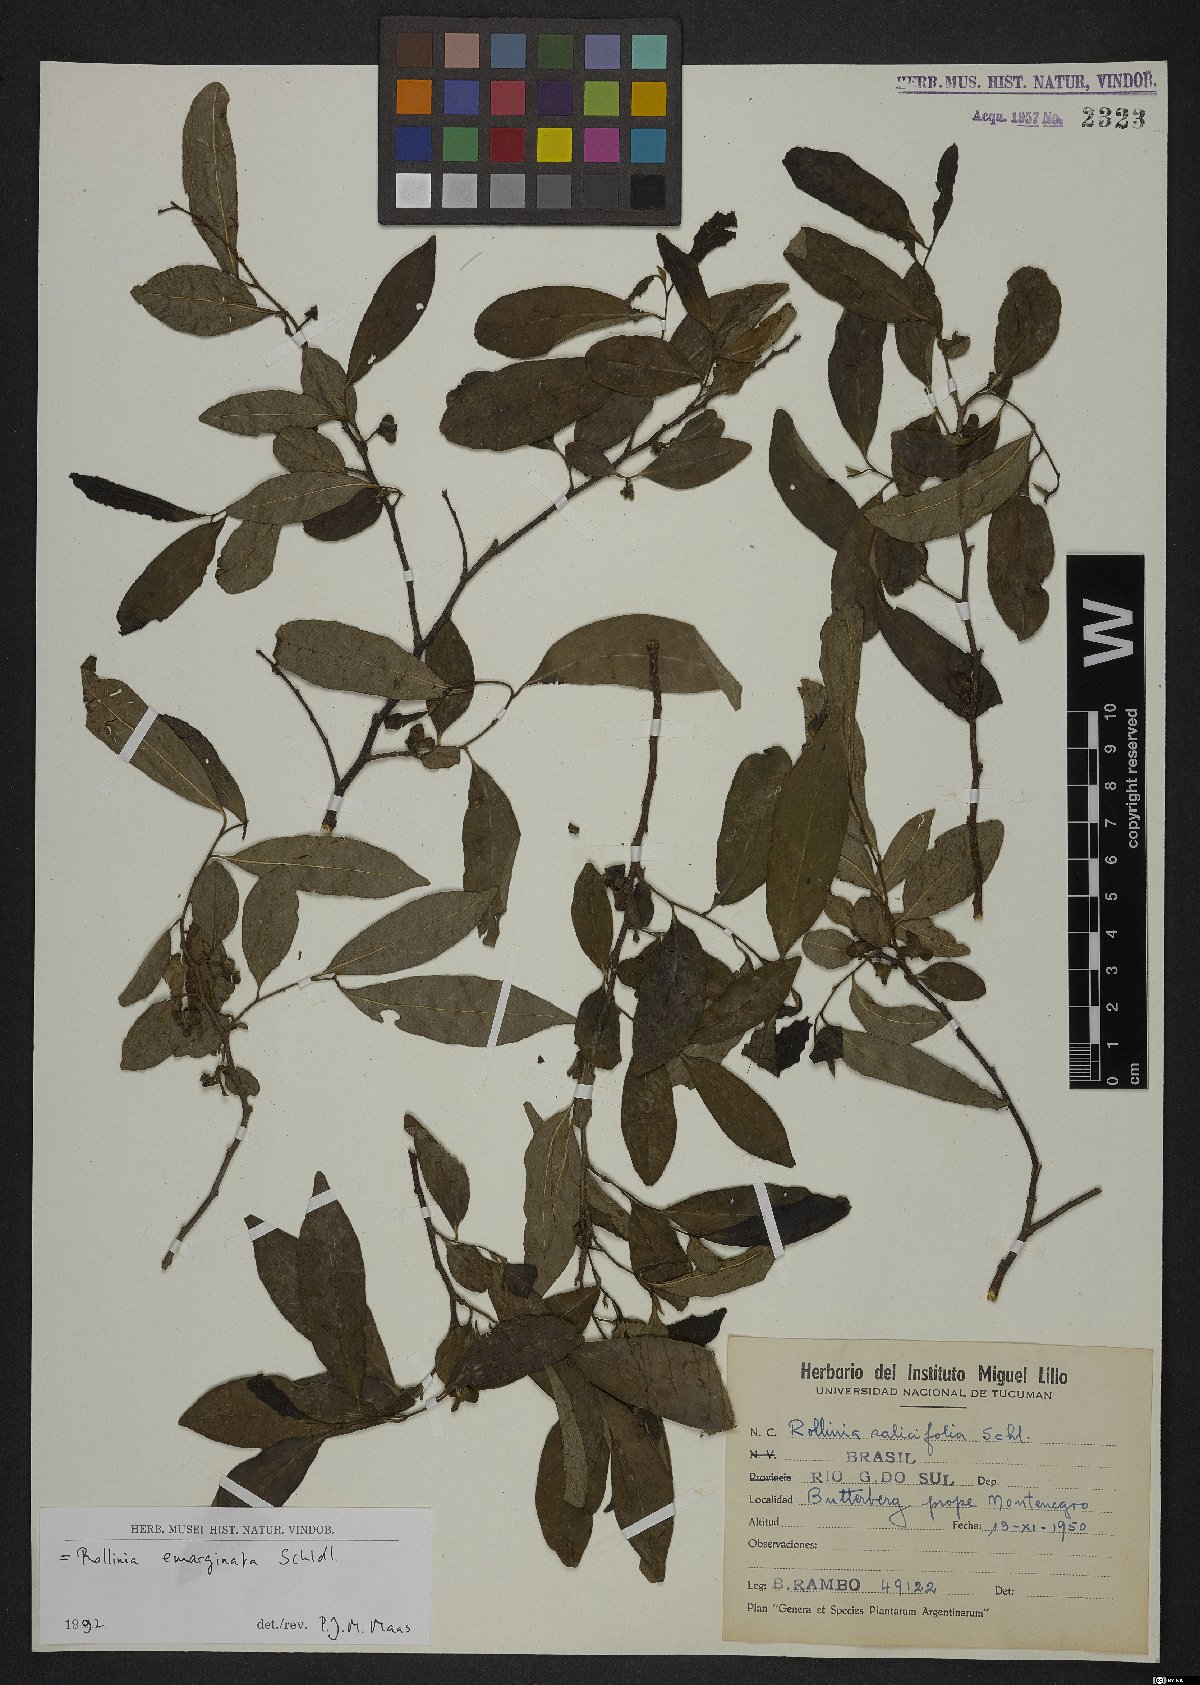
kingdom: Plantae
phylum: Tracheophyta
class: Magnoliopsida
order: Magnoliales
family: Annonaceae
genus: Annona
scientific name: Annona emarginata
